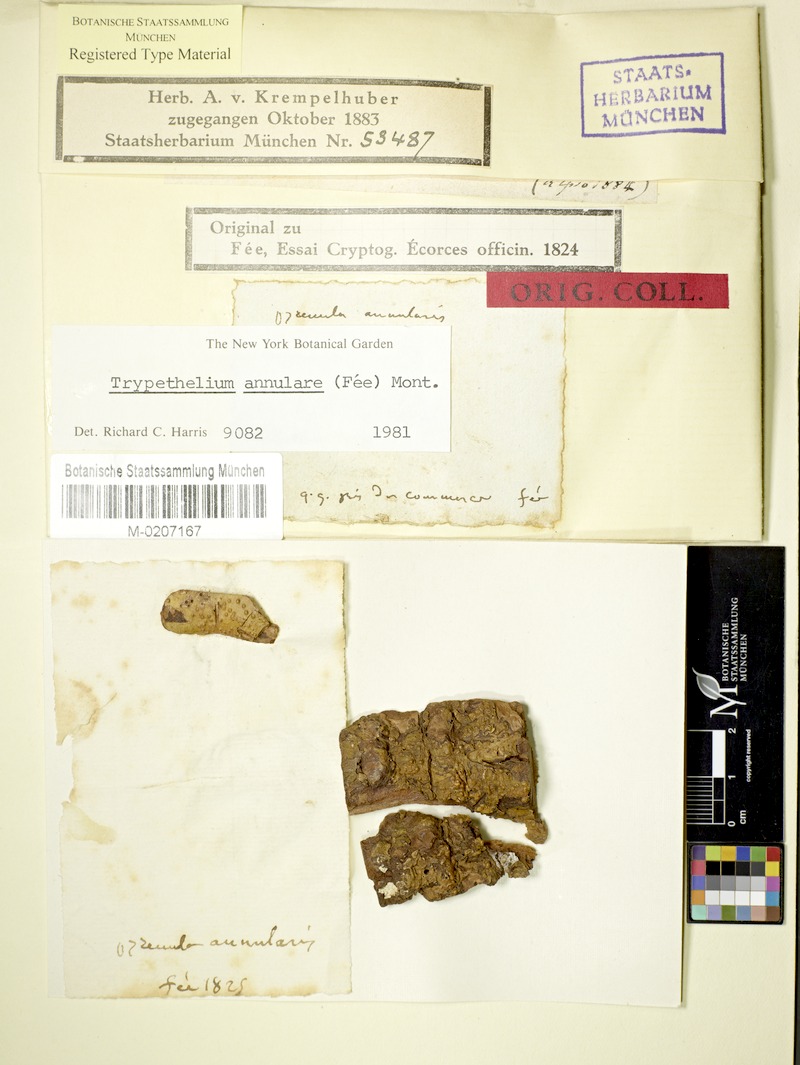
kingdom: Fungi
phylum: Ascomycota
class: Dothideomycetes
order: Trypetheliales
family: Trypetheliaceae
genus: Astrothelium
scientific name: Astrothelium annulare
